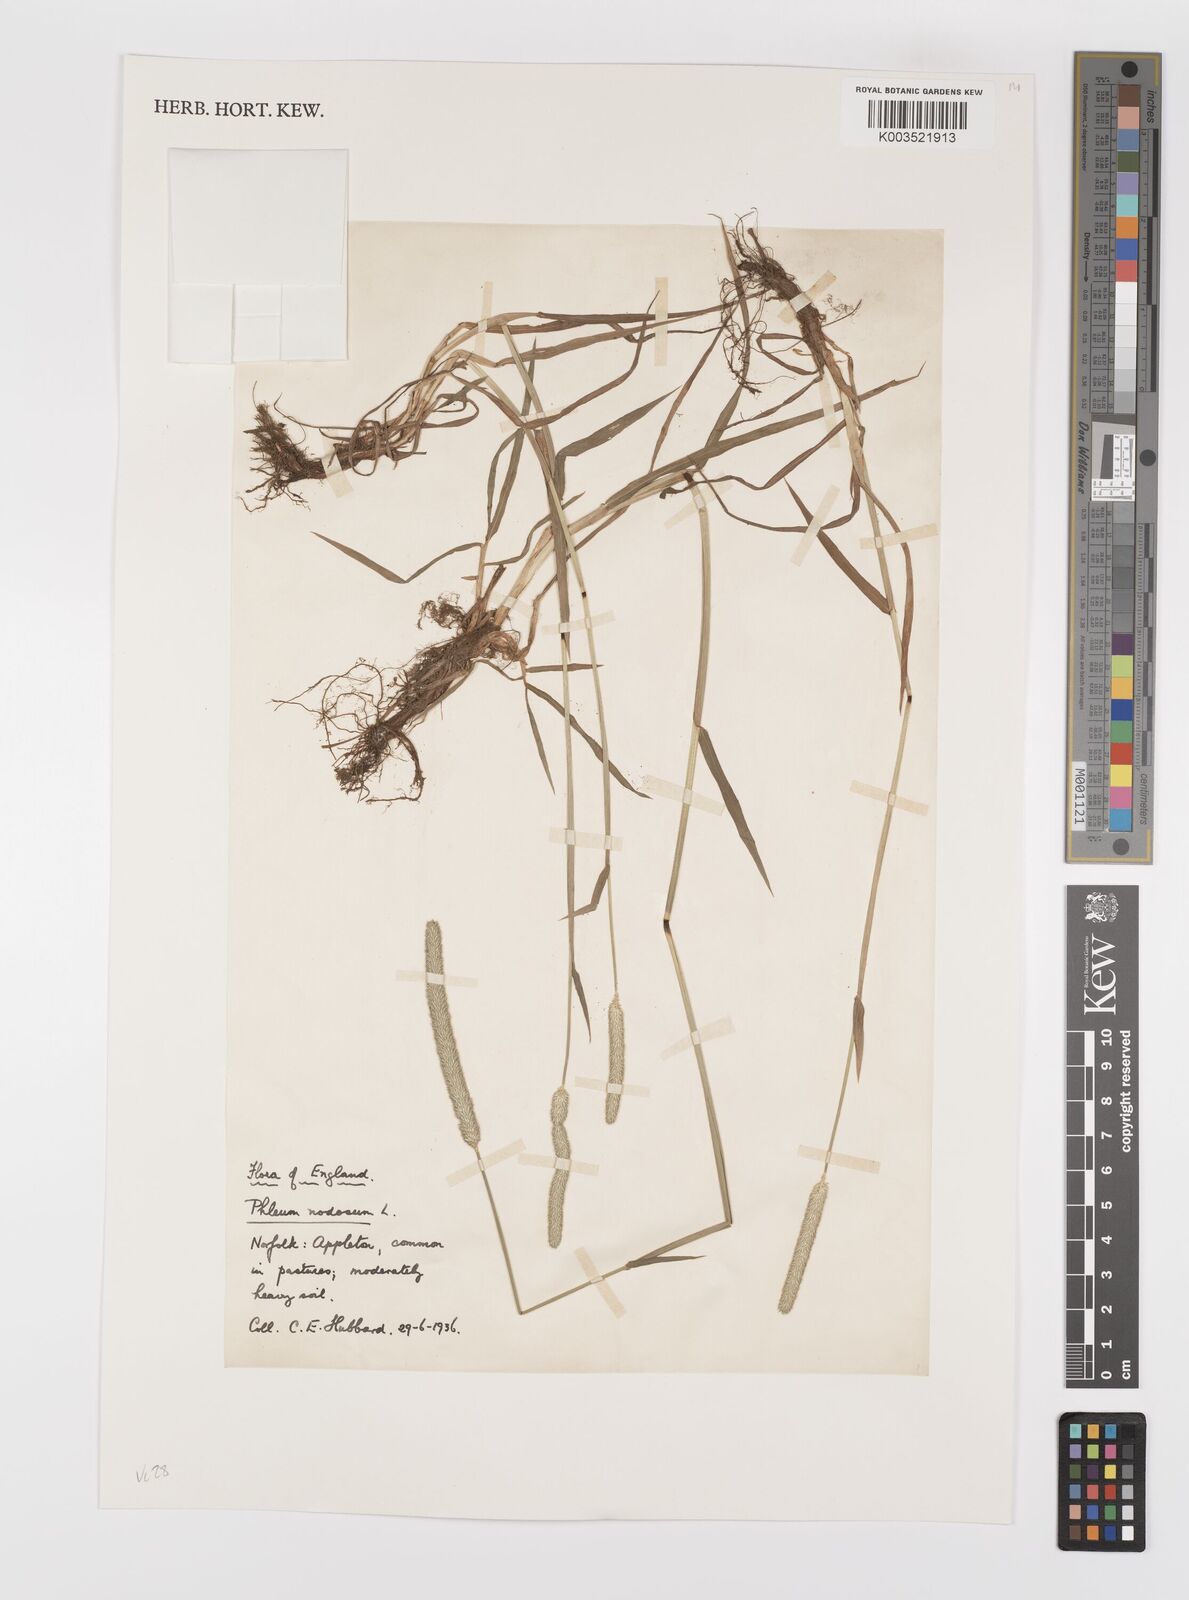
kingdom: Plantae
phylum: Tracheophyta
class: Liliopsida
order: Poales
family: Poaceae
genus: Phleum
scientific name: Phleum bertolonii
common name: Smaller cat's-tail
